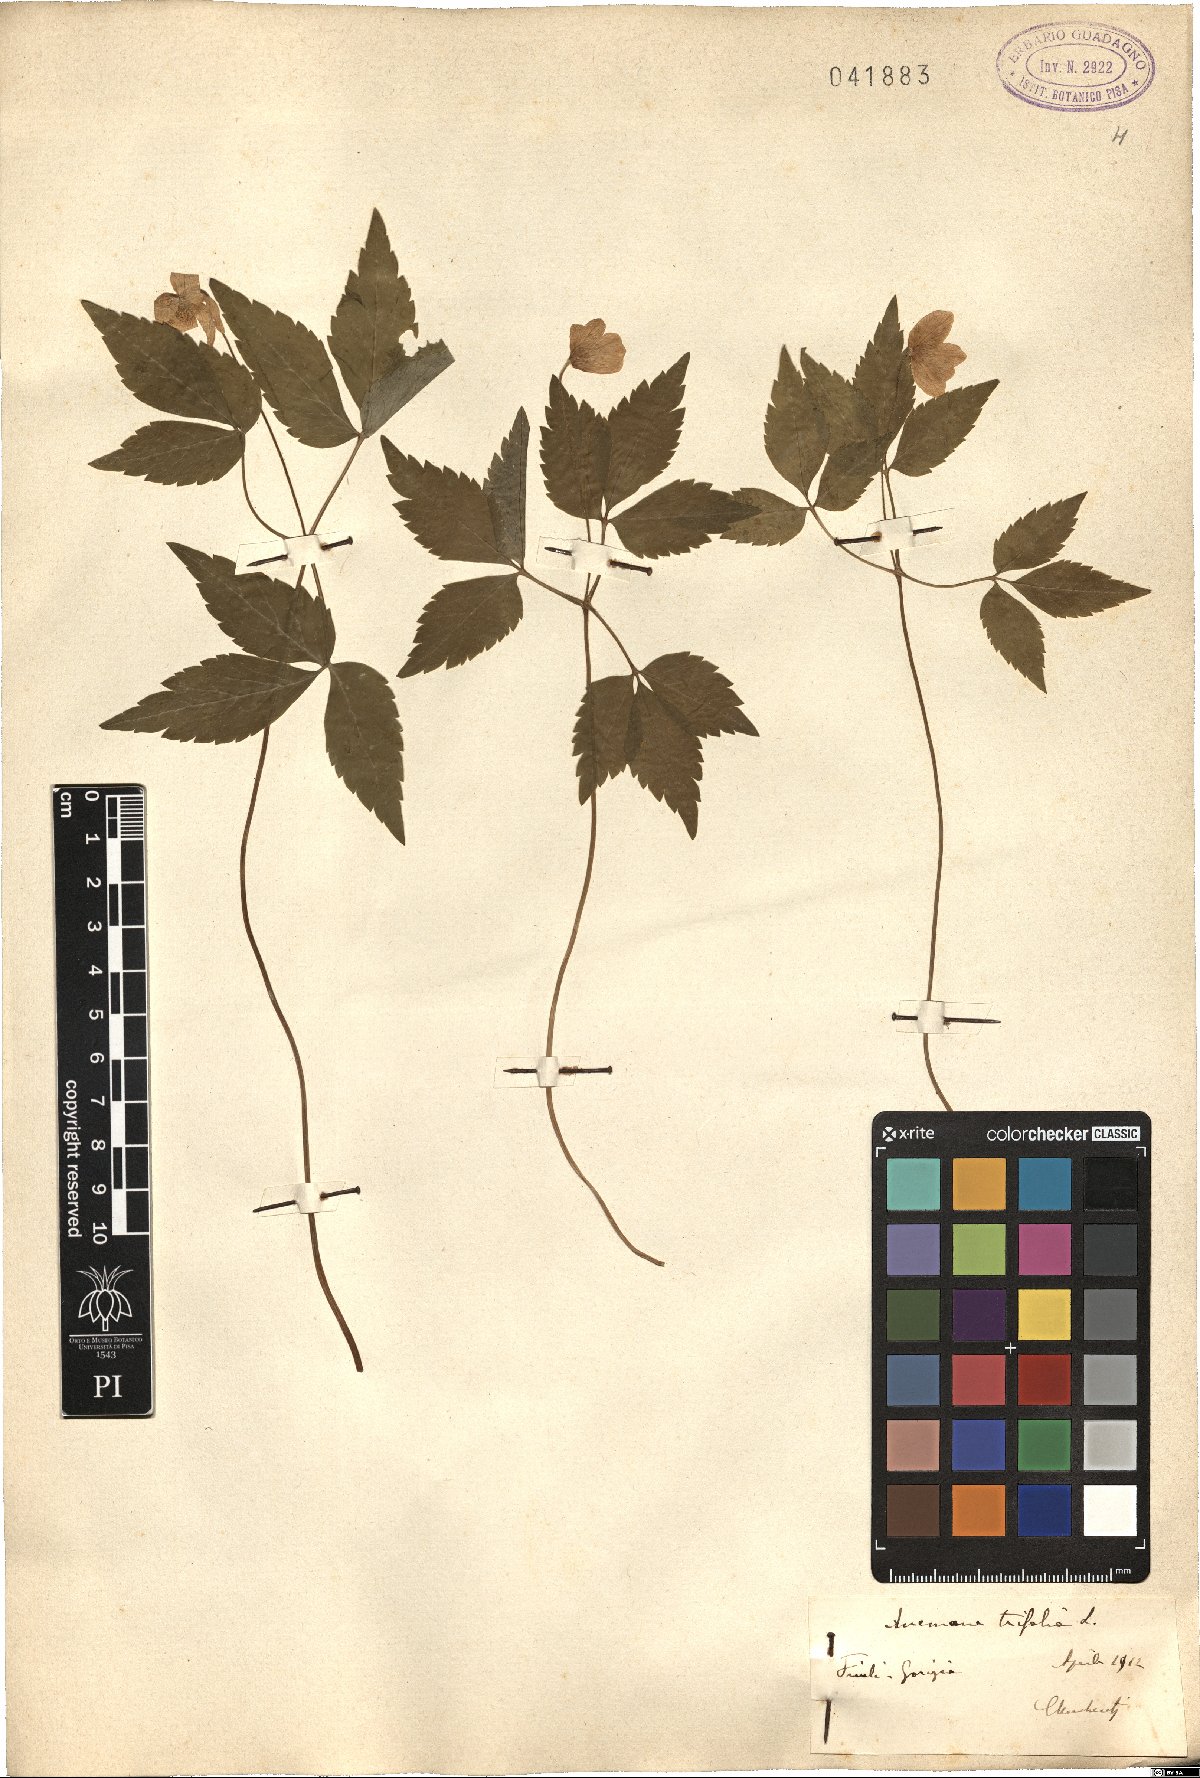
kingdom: Plantae
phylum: Tracheophyta
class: Magnoliopsida
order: Ranunculales
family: Ranunculaceae
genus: Anemone
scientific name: Anemone trifolia
